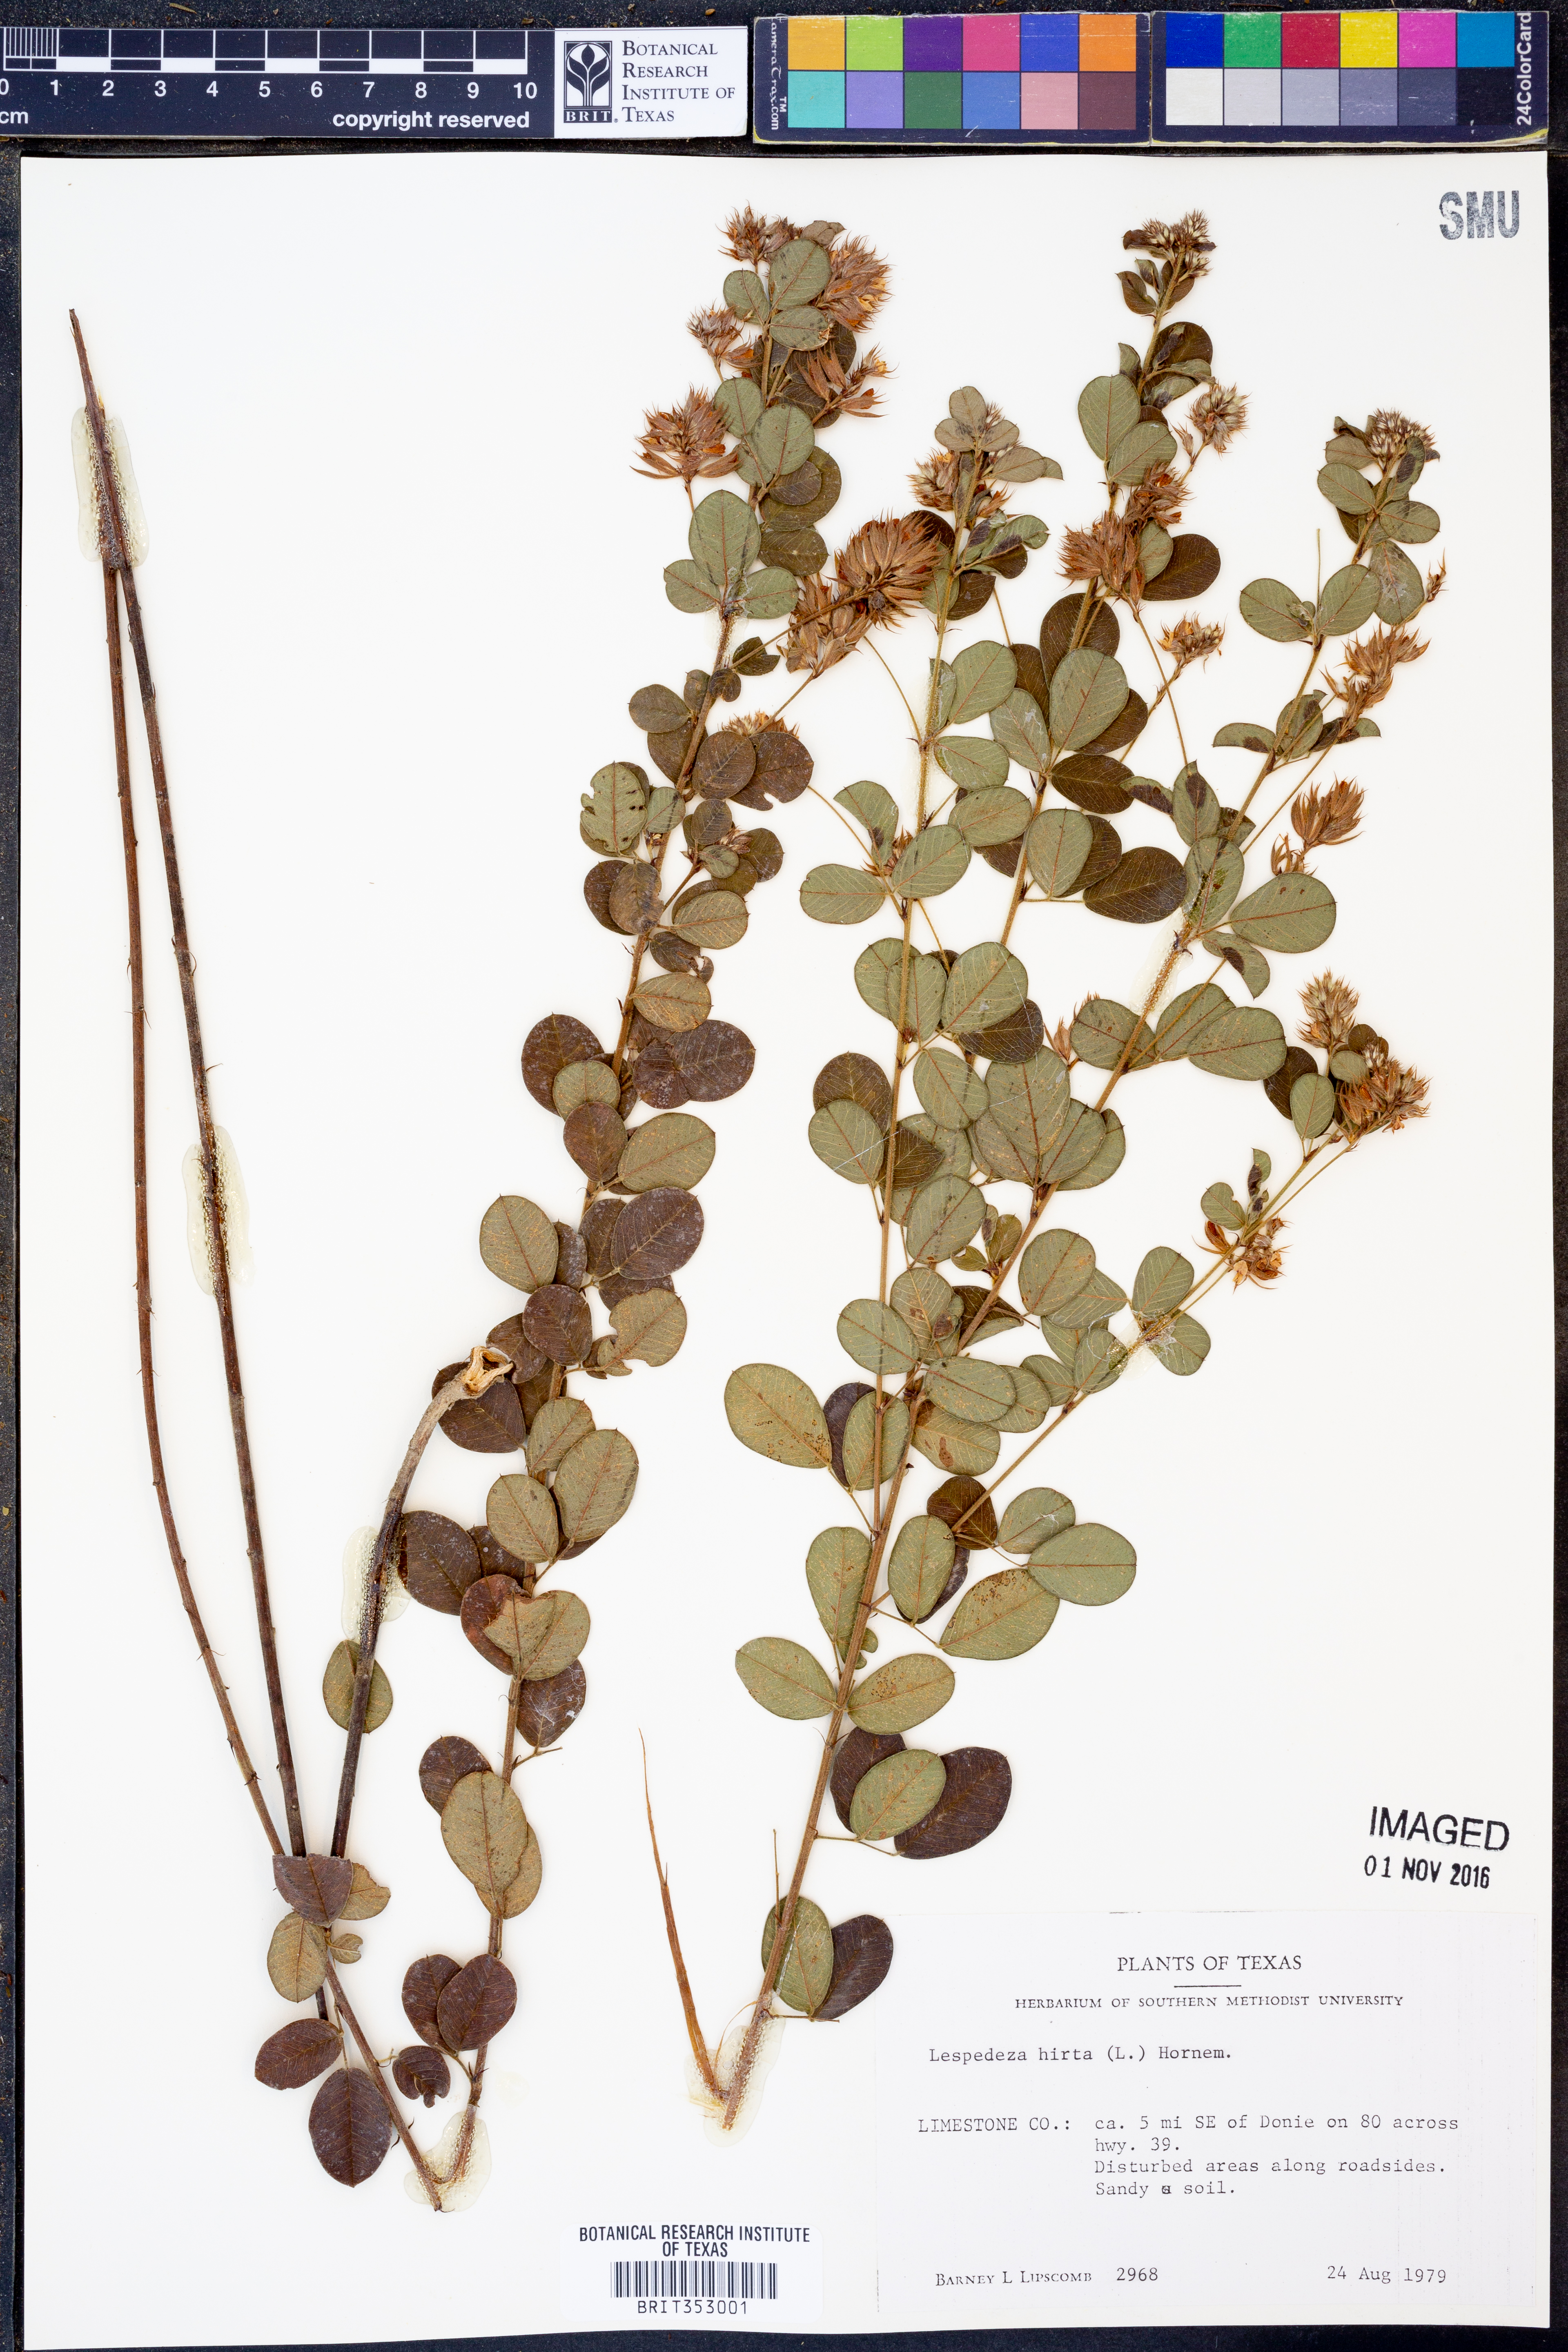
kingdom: Plantae
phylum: Tracheophyta
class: Magnoliopsida
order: Fabales
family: Fabaceae
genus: Lespedeza
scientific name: Lespedeza hirta
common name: Hairy lespedeza
